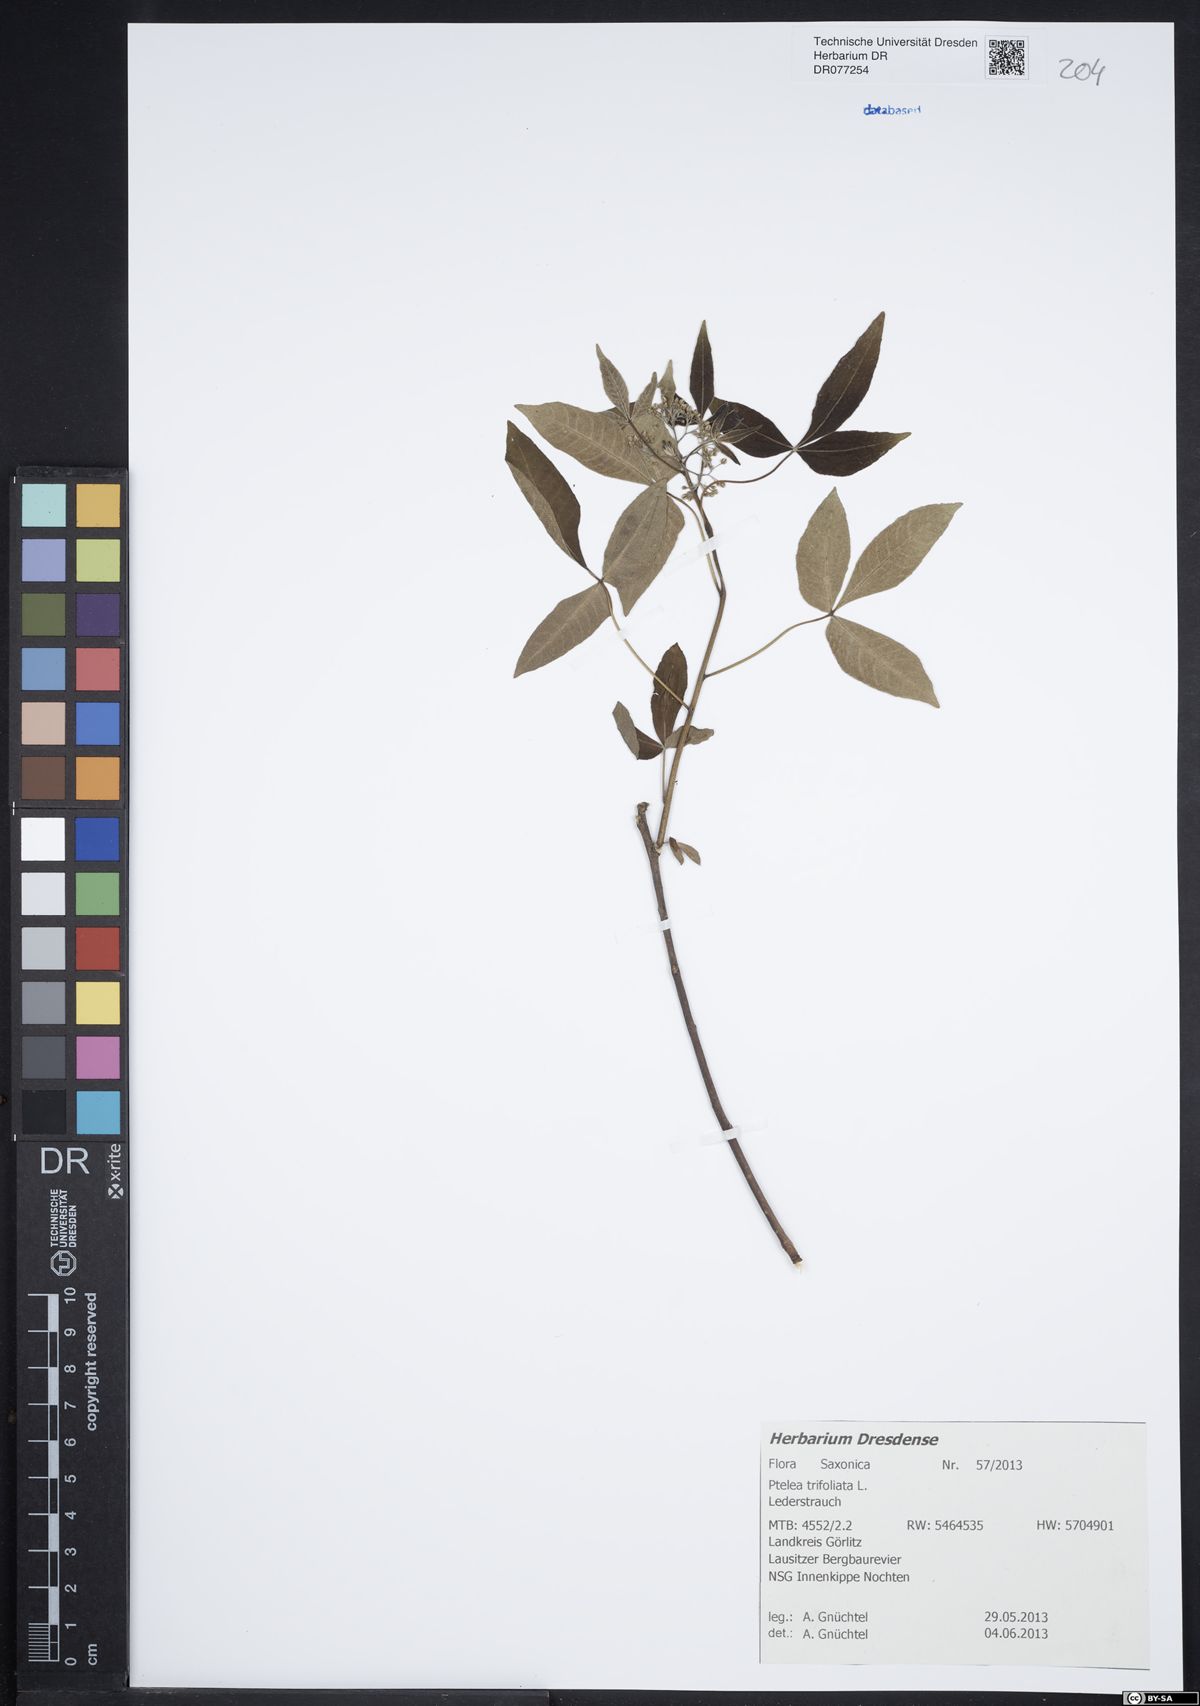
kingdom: Plantae
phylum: Tracheophyta
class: Magnoliopsida
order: Sapindales
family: Rutaceae
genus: Ptelea
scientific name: Ptelea trifoliata
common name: Common hop-tree
